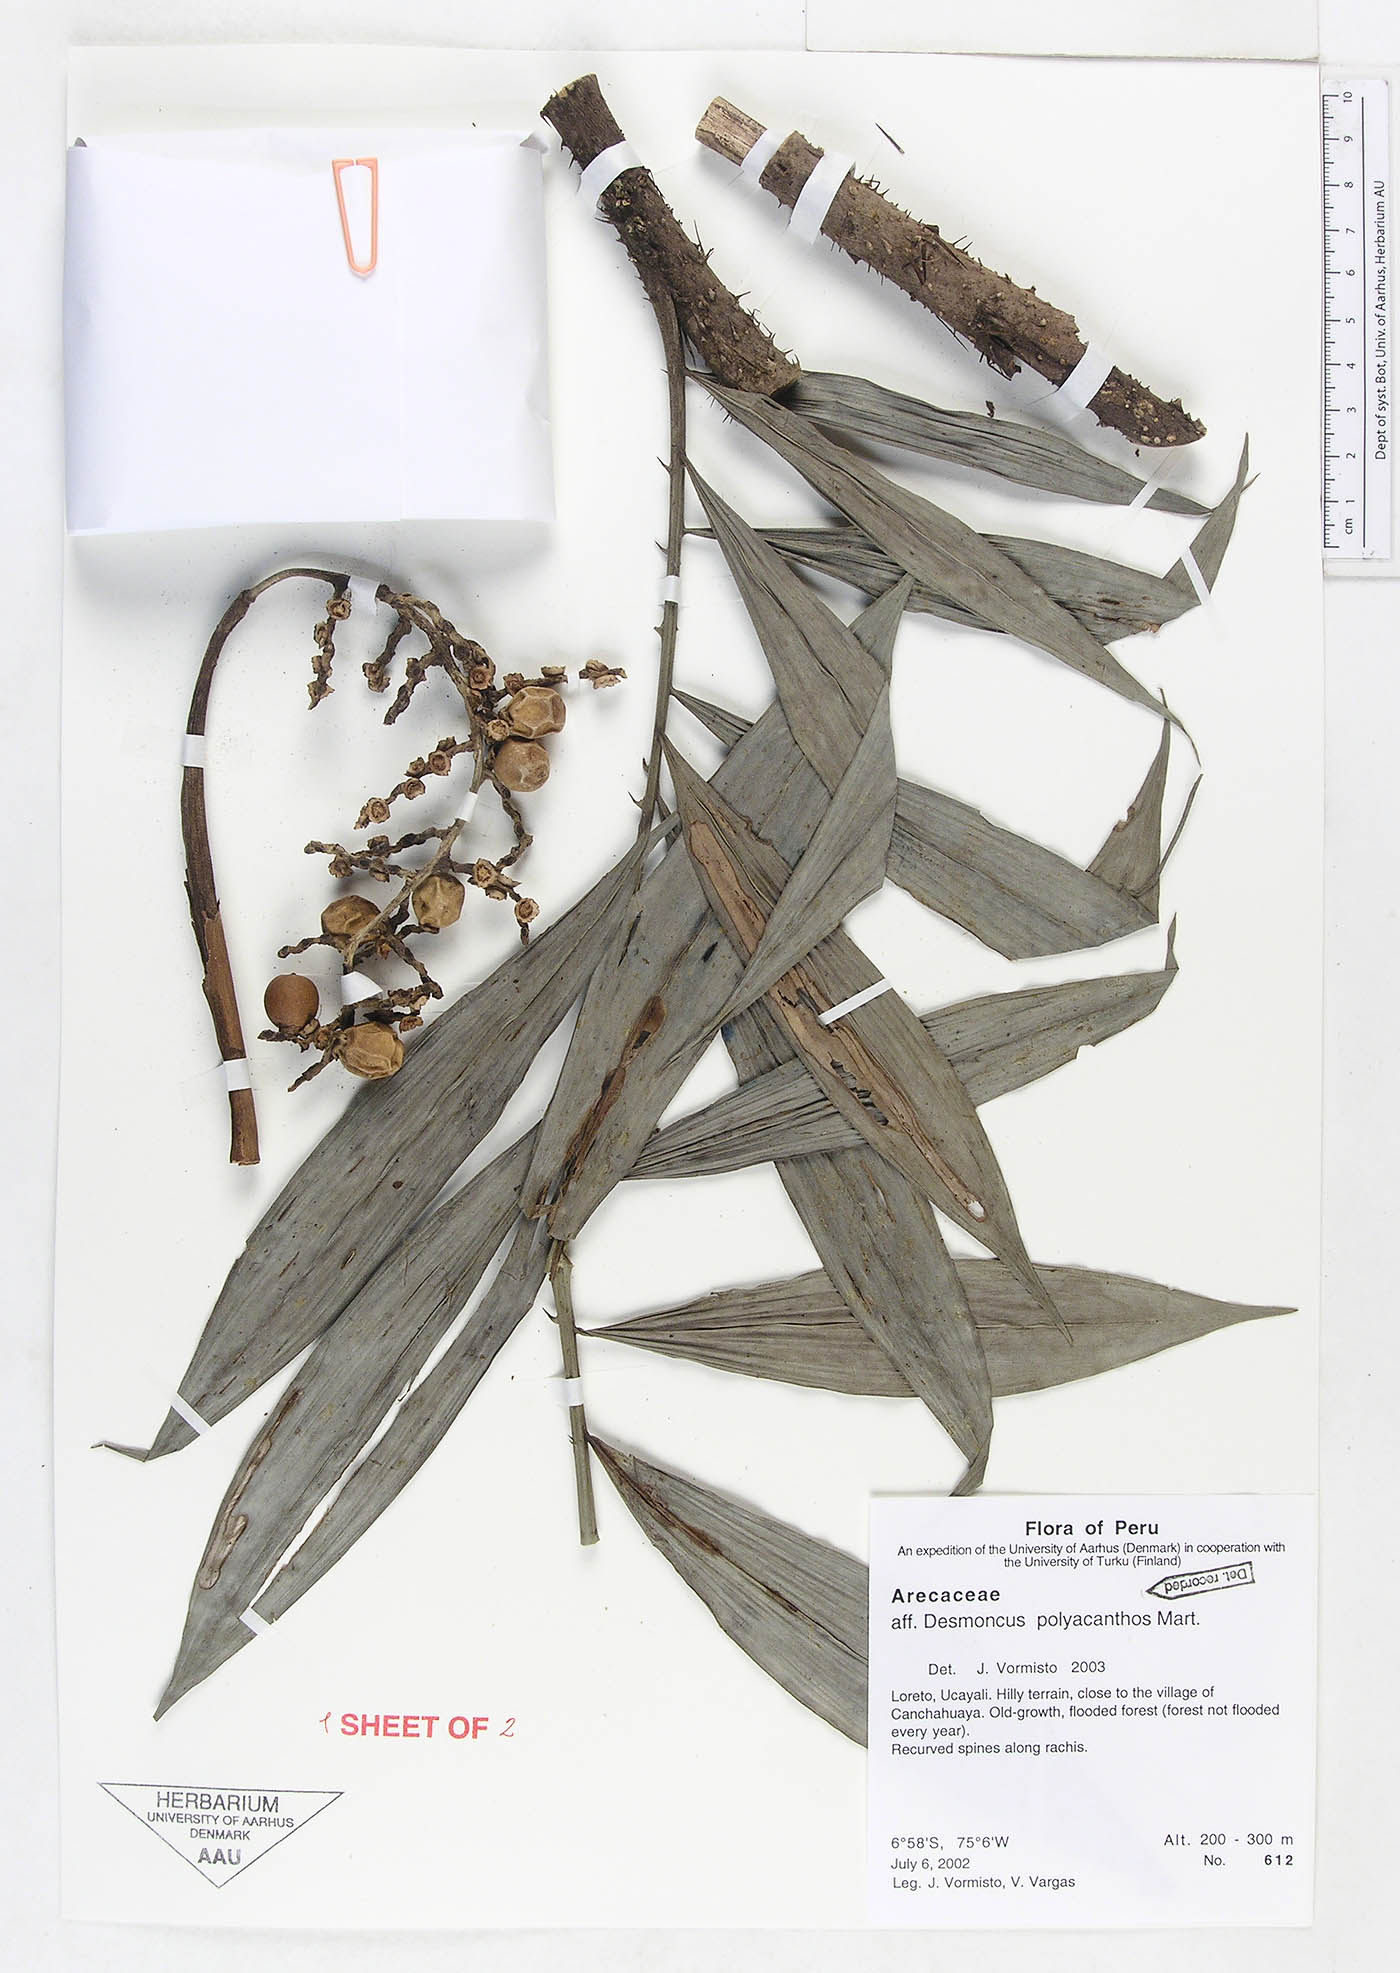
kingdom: Plantae
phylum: Tracheophyta
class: Liliopsida
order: Arecales
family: Arecaceae
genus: Desmoncus
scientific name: Desmoncus polyacanthos
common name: Suriname bramble palm
